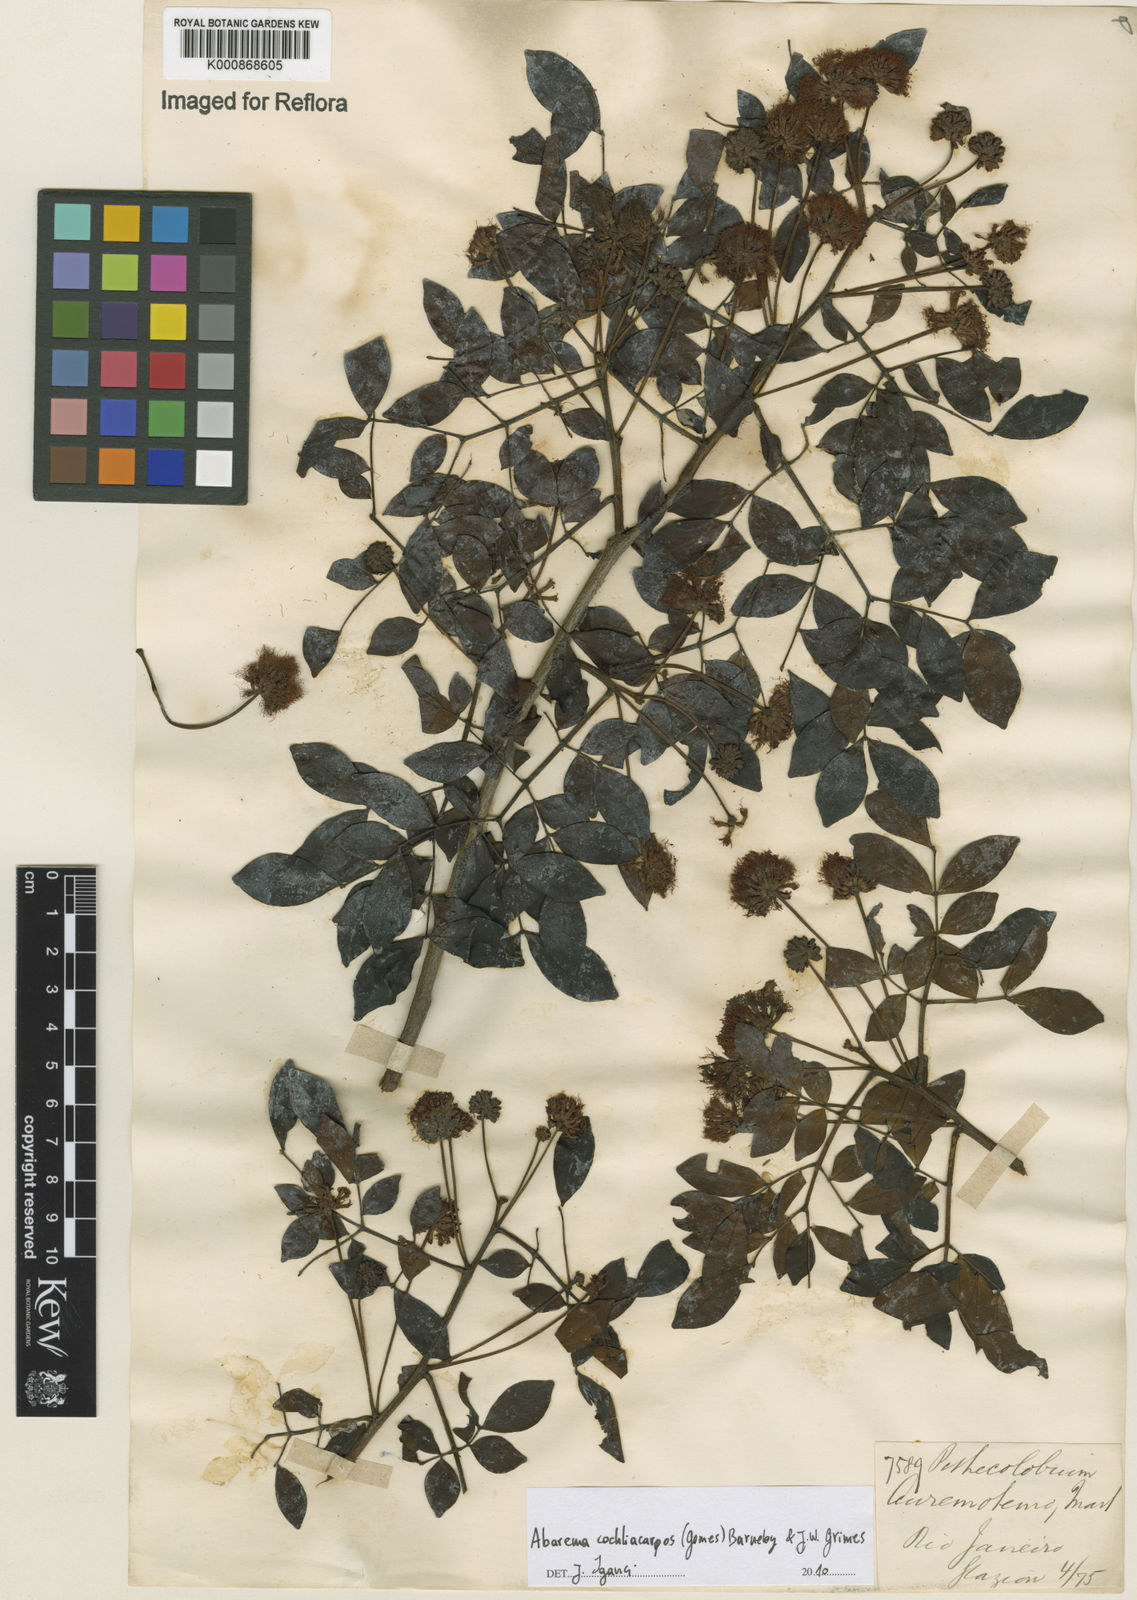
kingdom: Plantae
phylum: Tracheophyta
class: Magnoliopsida
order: Fabales
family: Fabaceae
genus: Abarema
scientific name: Abarema
